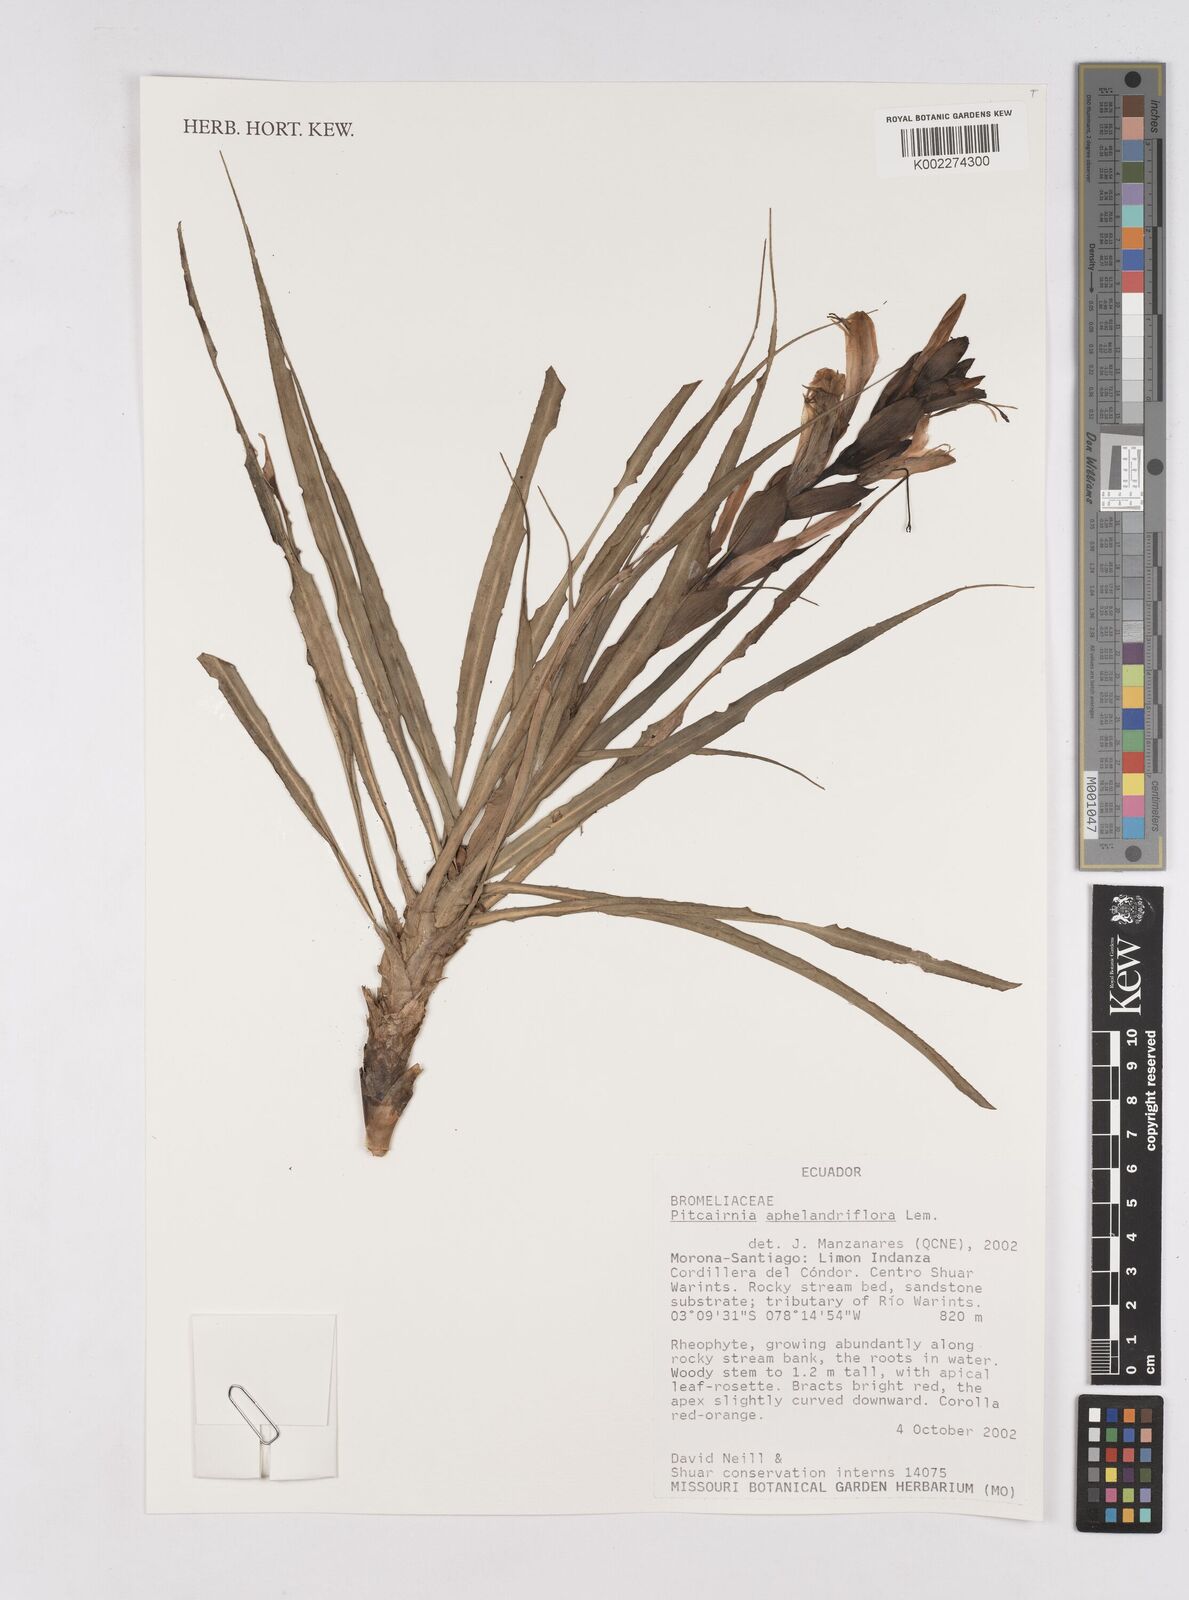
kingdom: Plantae
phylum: Tracheophyta
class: Liliopsida
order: Poales
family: Bromeliaceae
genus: Pitcairnia
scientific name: Pitcairnia aphelandriflora
